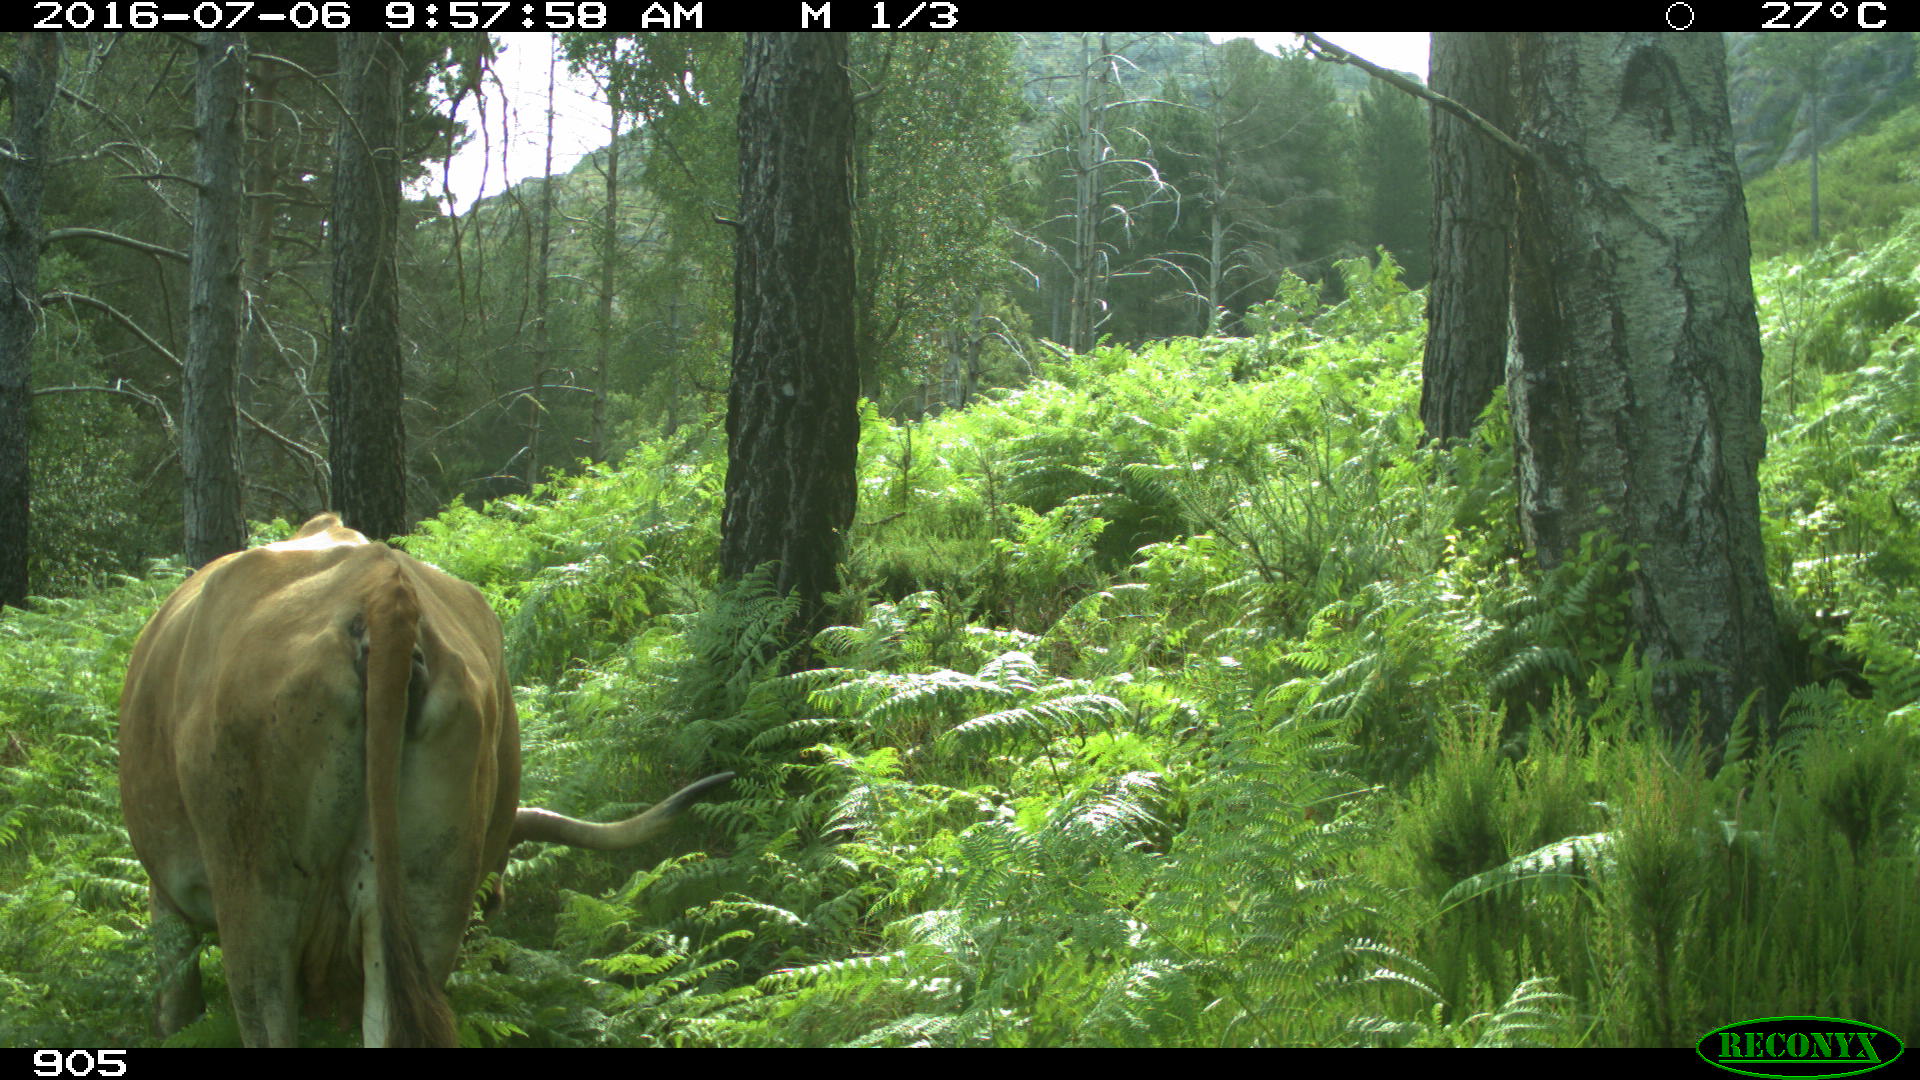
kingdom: Animalia
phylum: Chordata
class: Mammalia
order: Artiodactyla
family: Bovidae
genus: Bos
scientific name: Bos taurus
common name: Domesticated cattle
